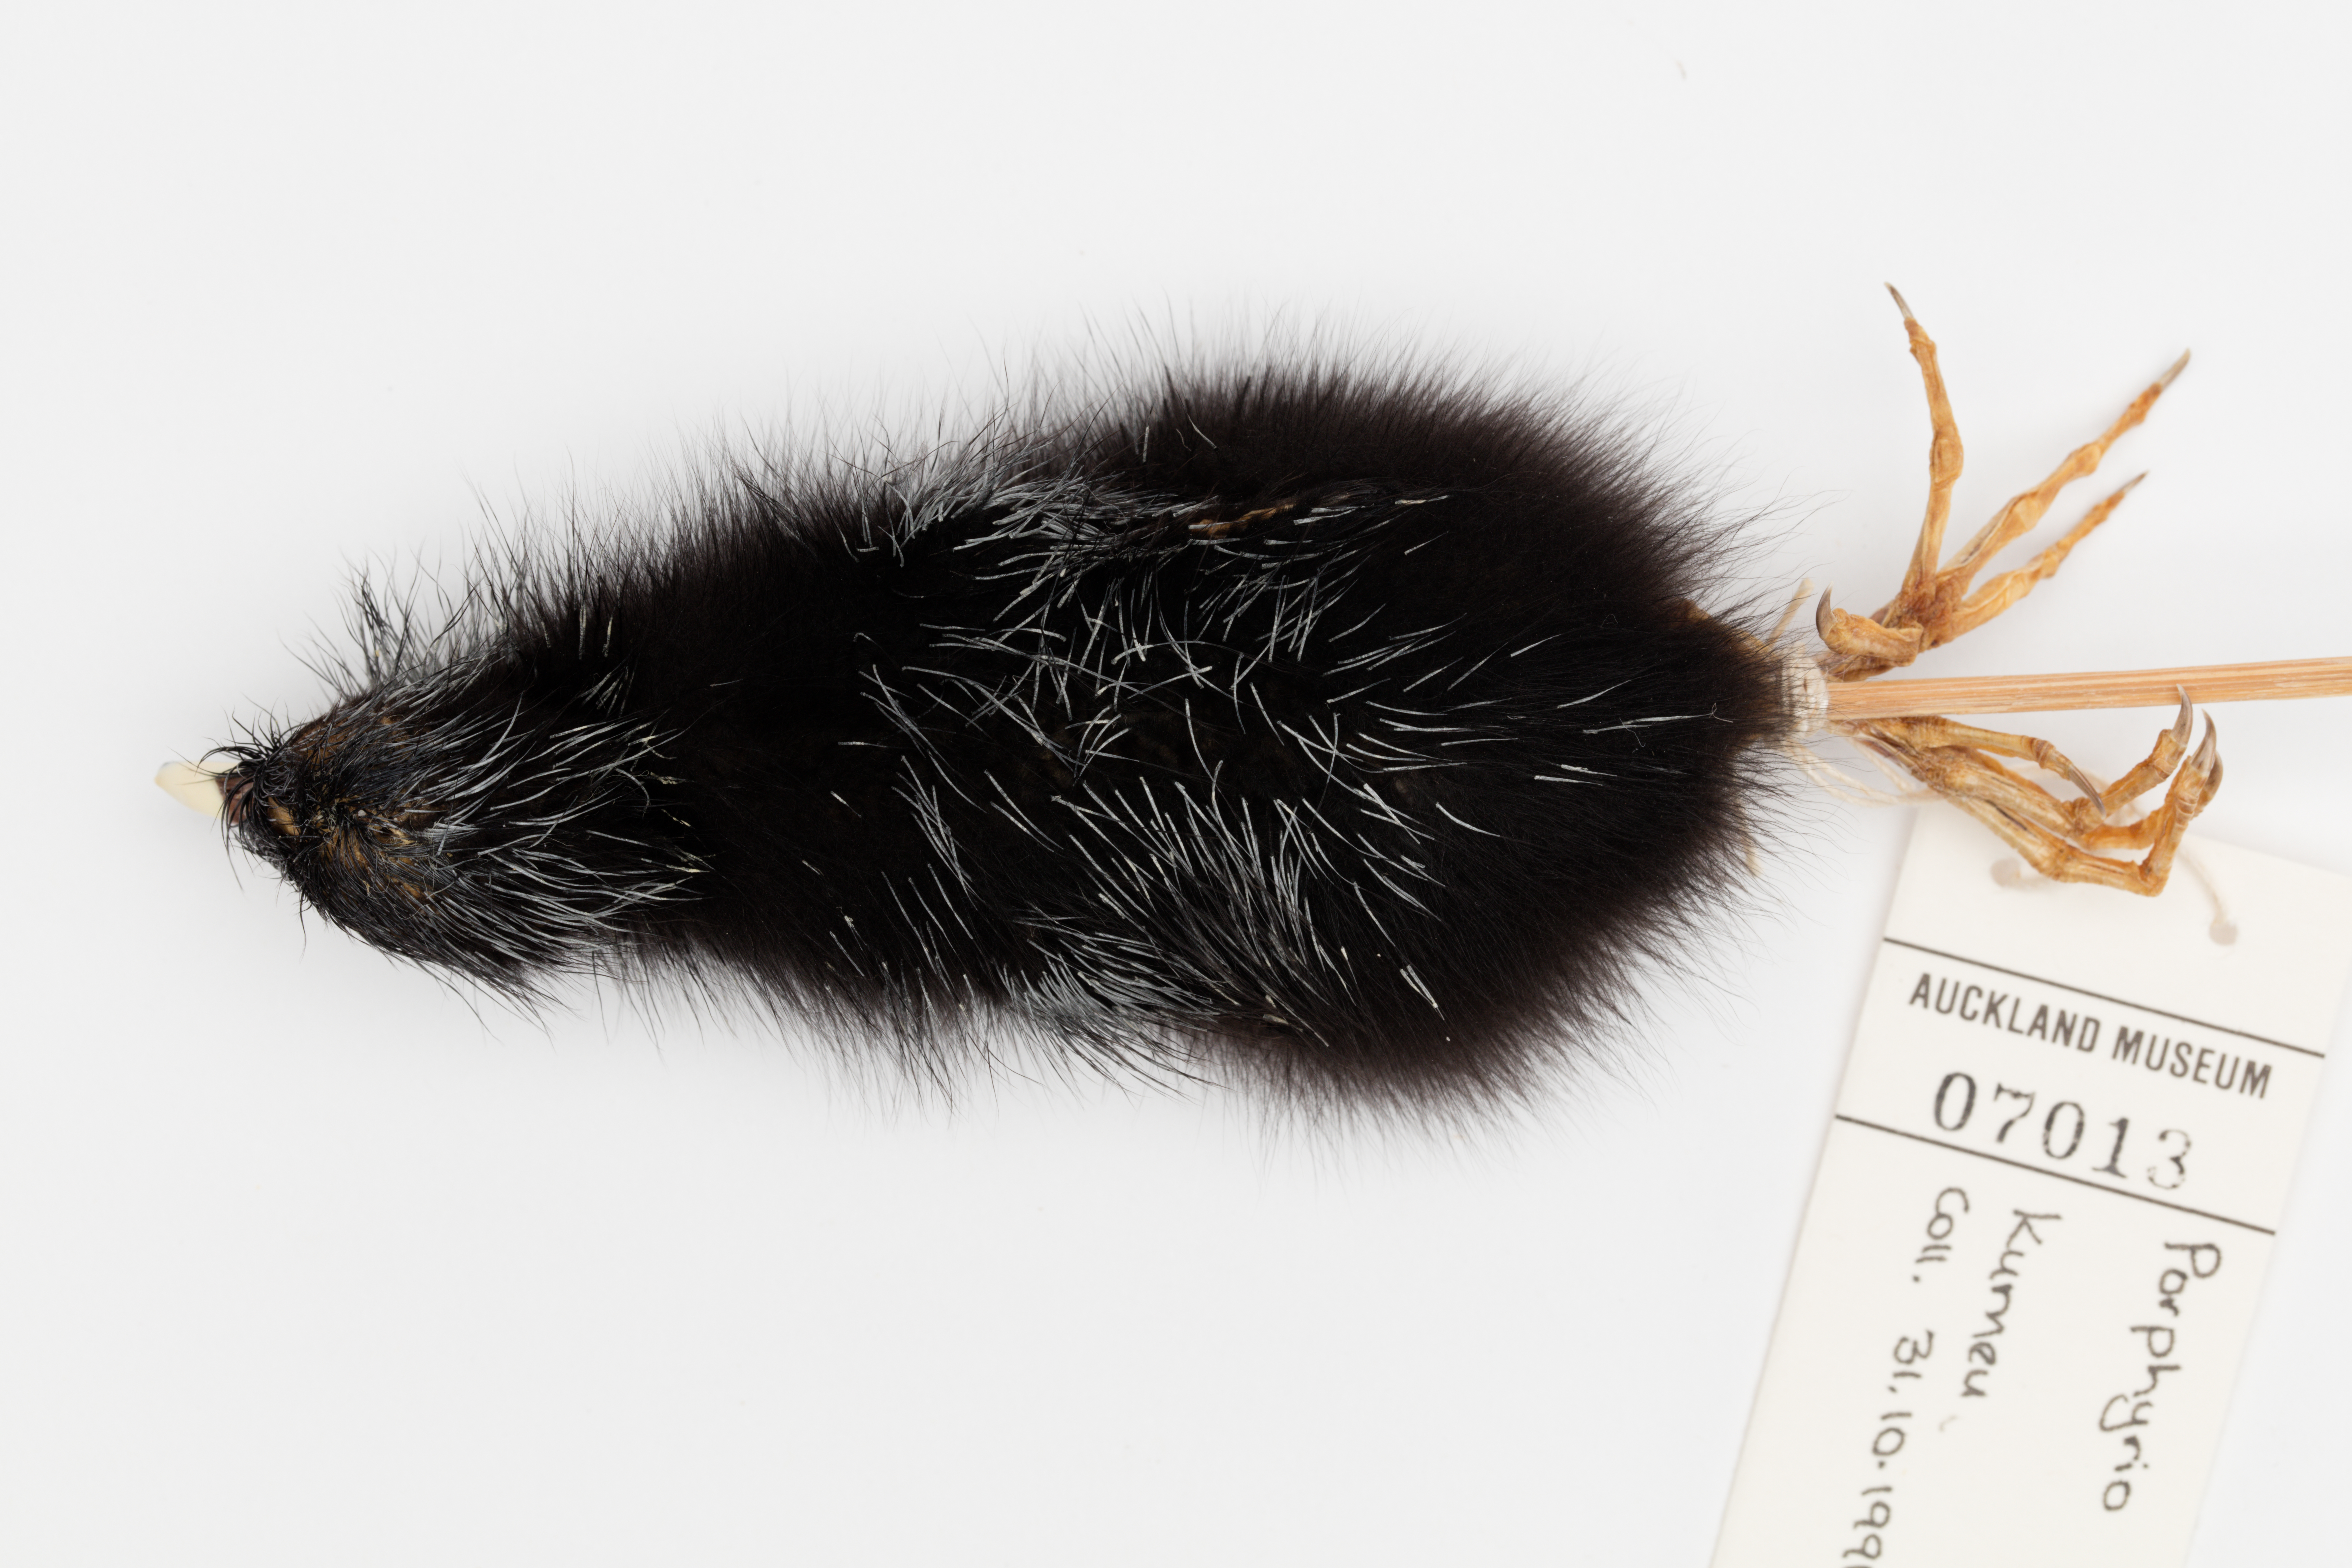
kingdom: Animalia
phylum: Chordata
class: Aves
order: Gruiformes
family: Rallidae
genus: Porphyrio
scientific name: Porphyrio melanotus
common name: Australasian swamphen
